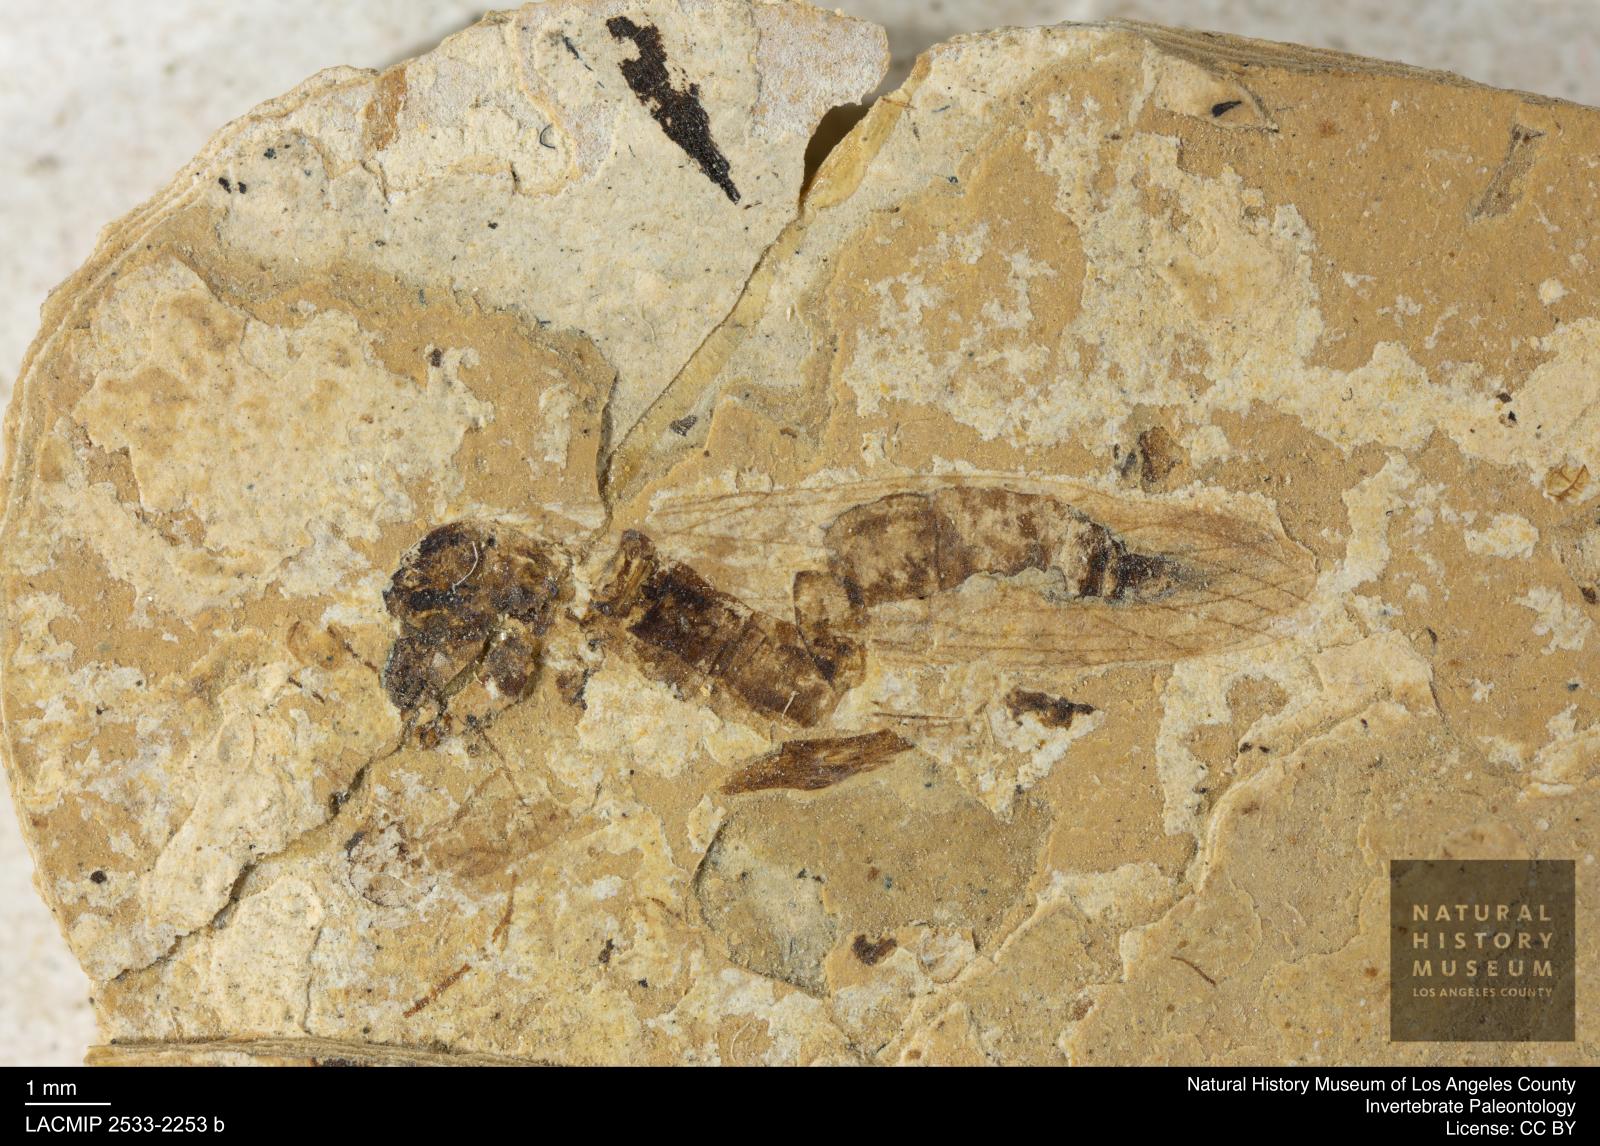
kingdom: Animalia
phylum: Arthropoda
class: Insecta
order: Diptera
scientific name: Diptera
